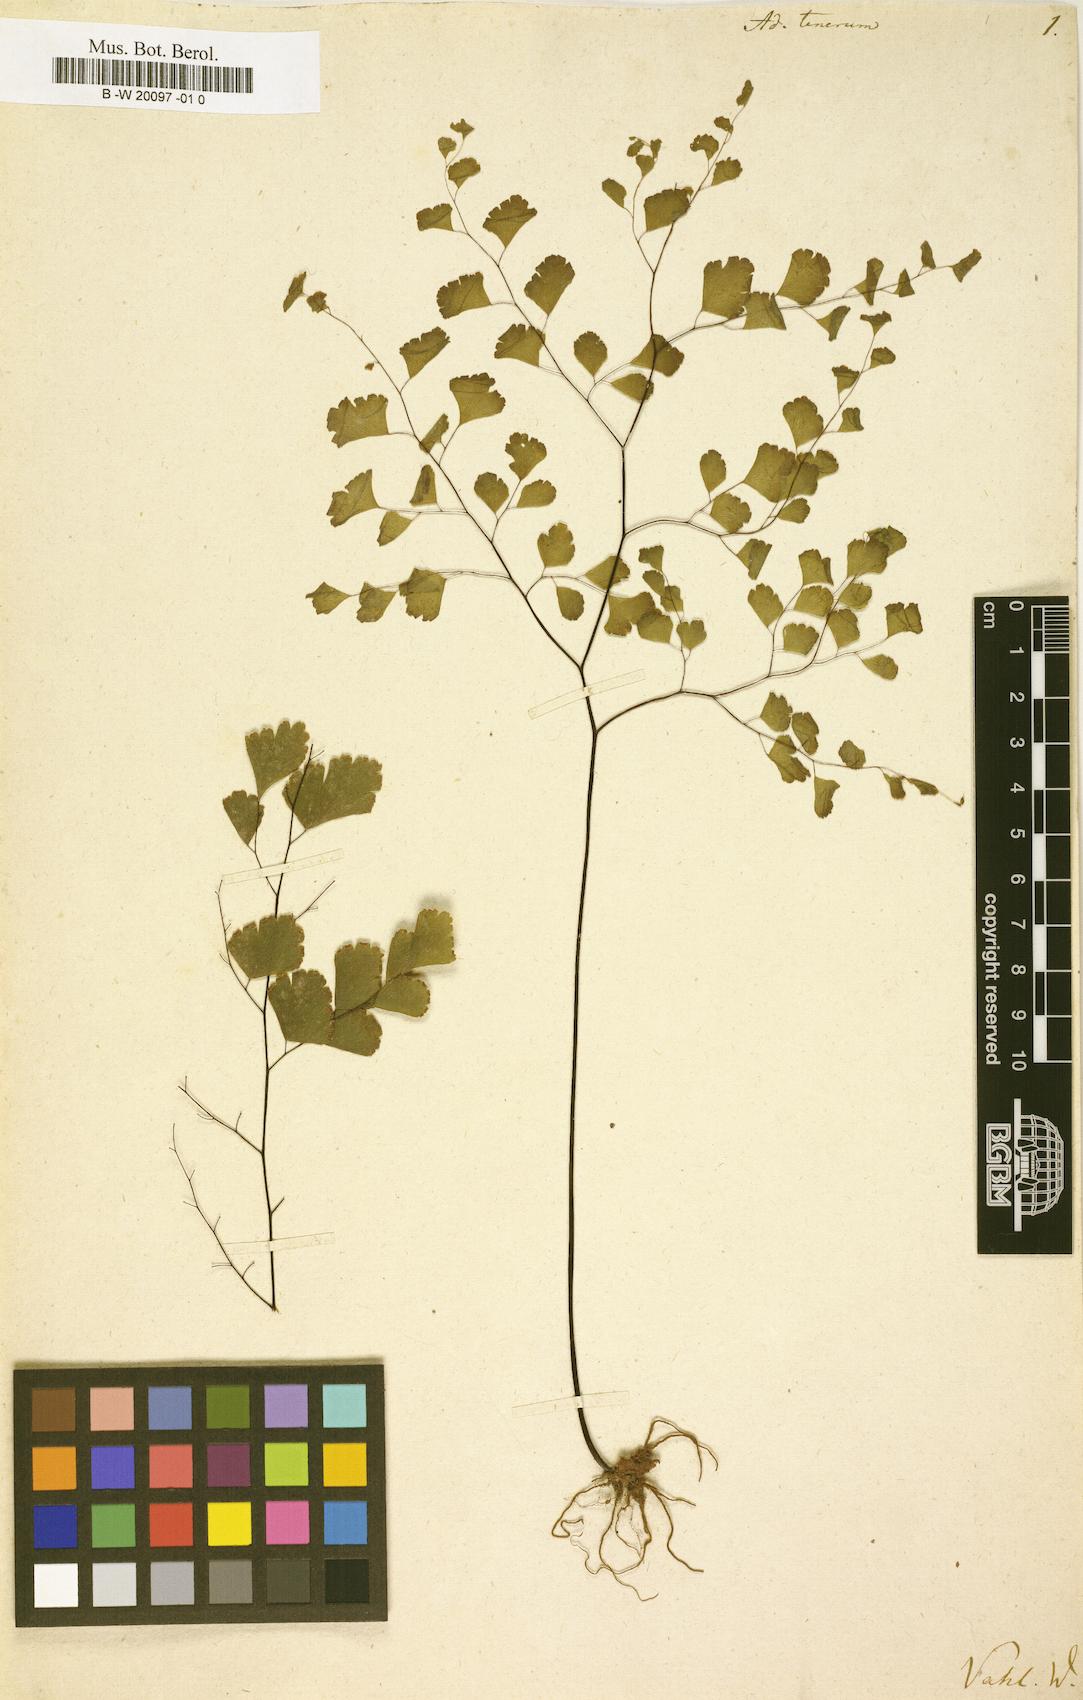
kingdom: Plantae
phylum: Tracheophyta
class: Polypodiopsida
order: Polypodiales
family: Pteridaceae
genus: Adiantum
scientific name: Adiantum tenerum
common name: Fan maidenhair
